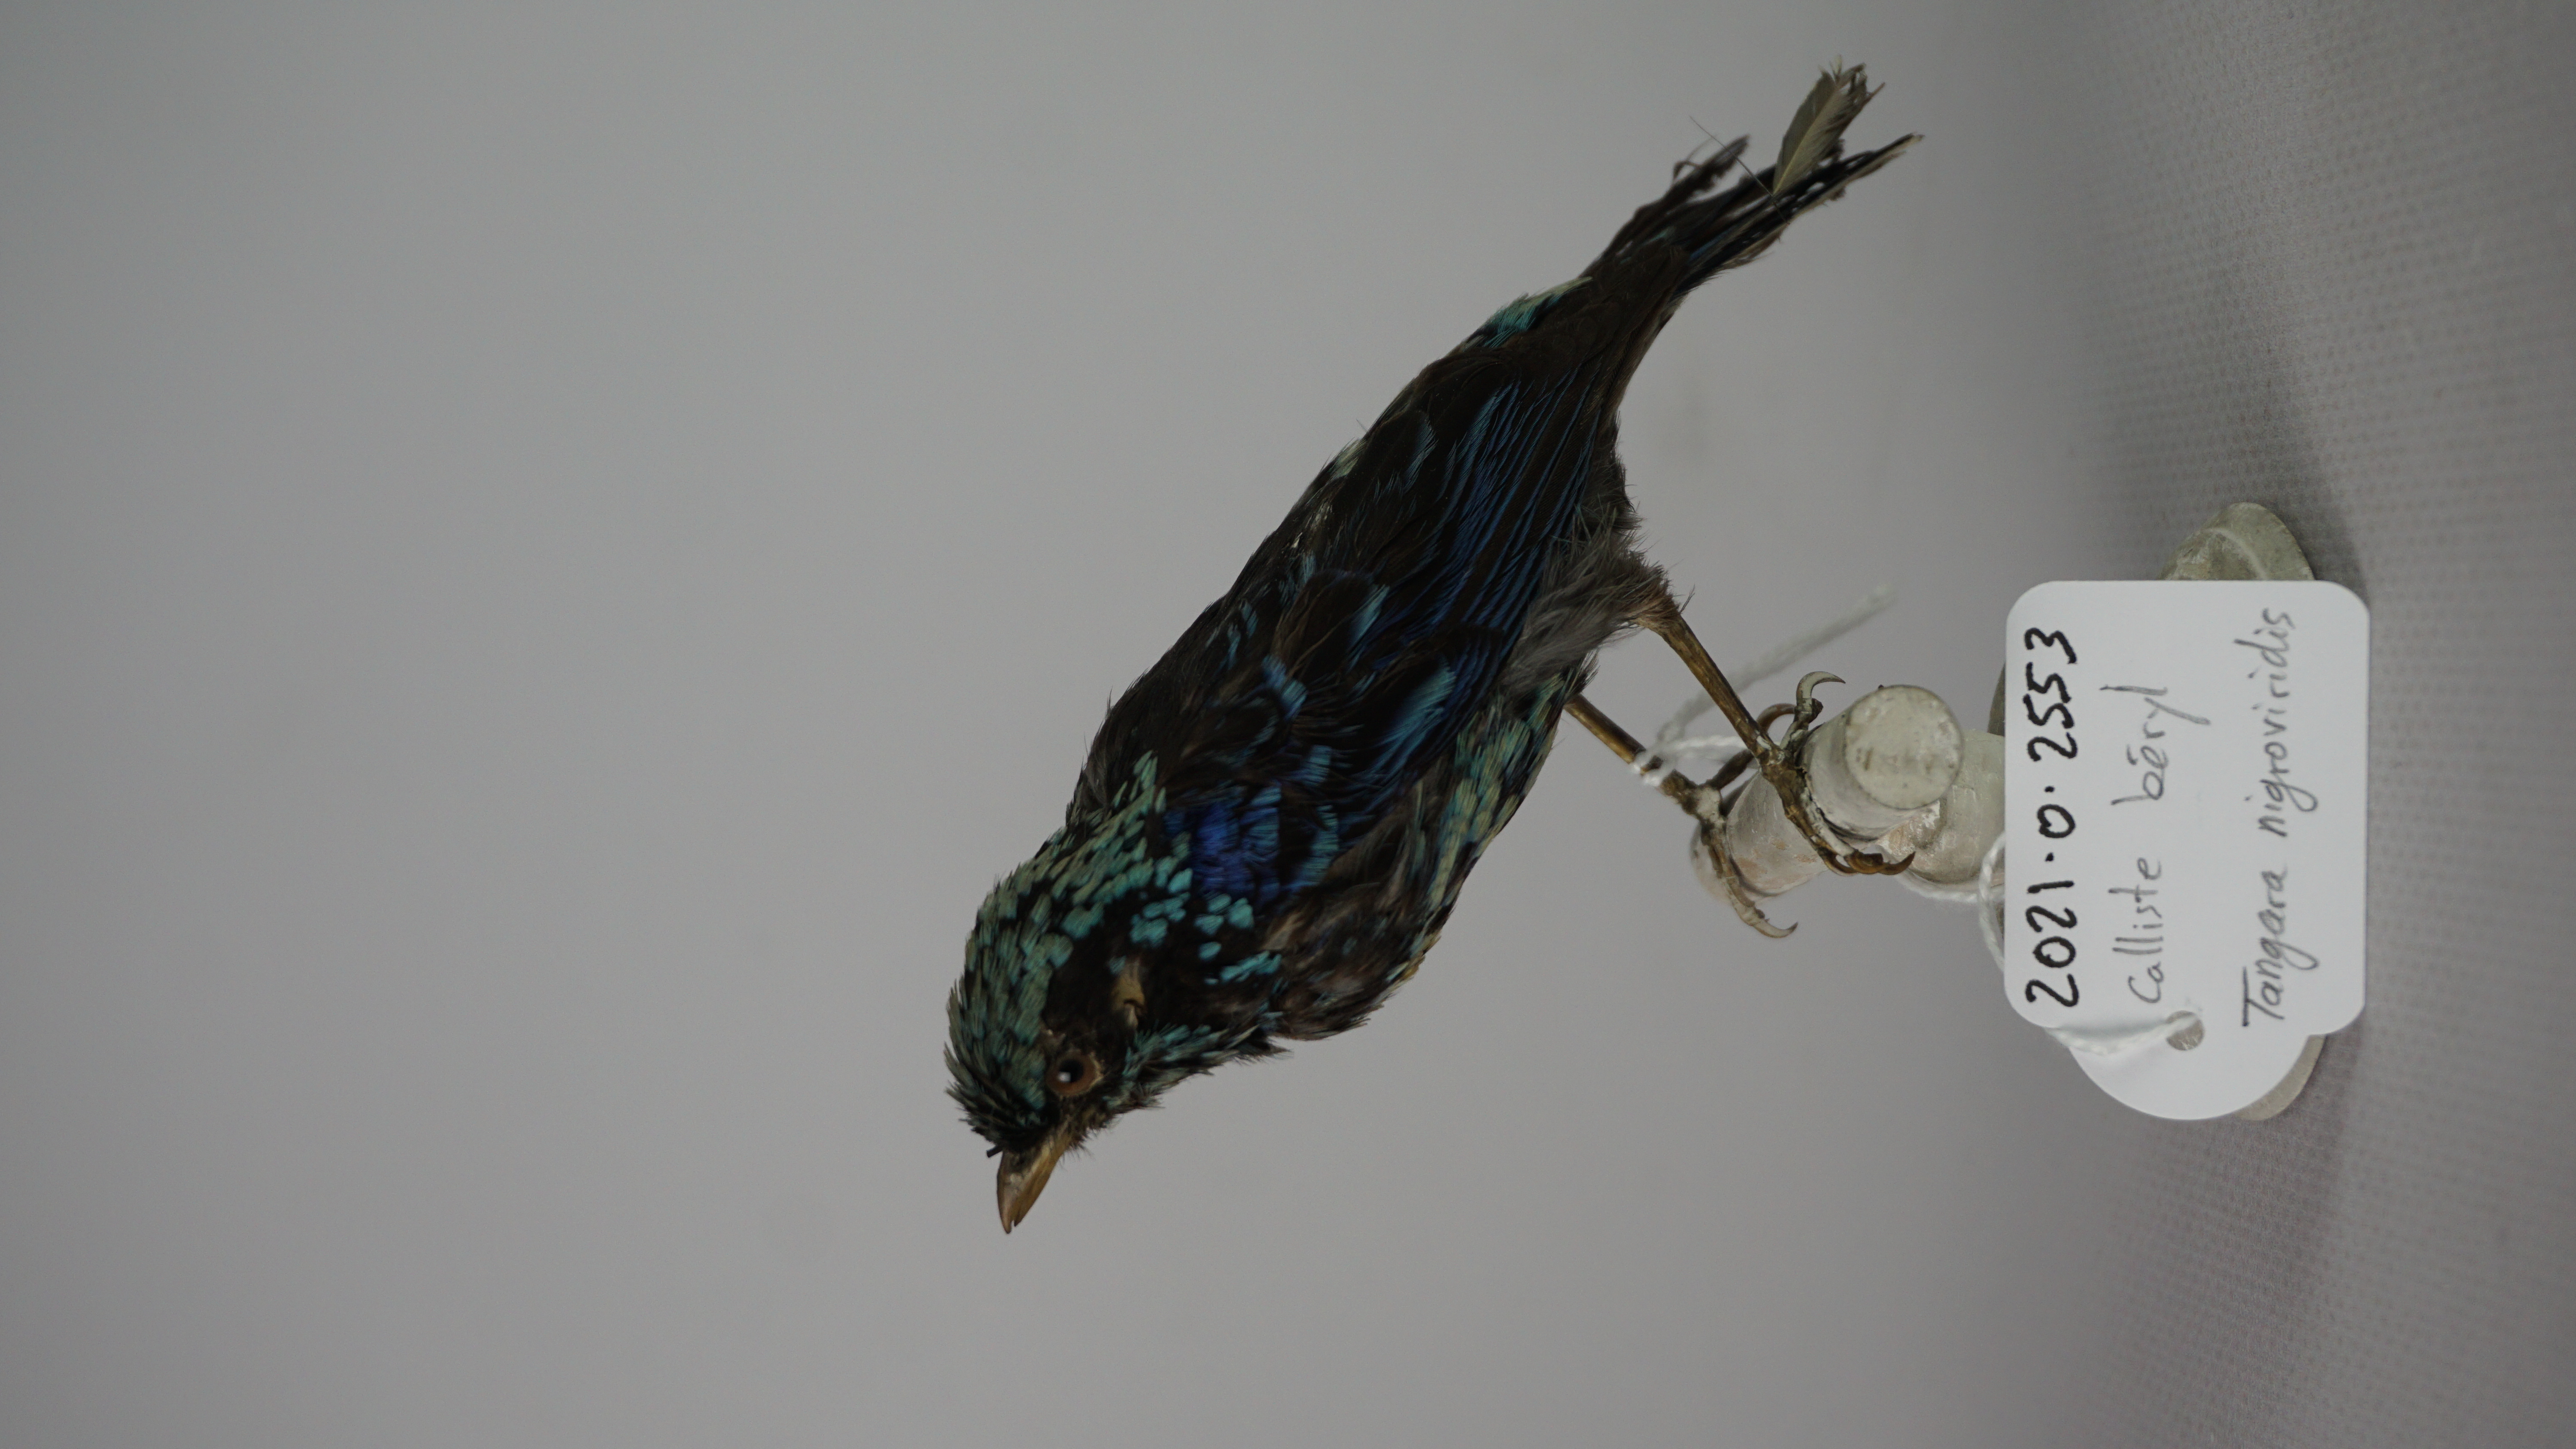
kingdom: Animalia
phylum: Chordata
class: Aves
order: Passeriformes
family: Thraupidae
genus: Tangara
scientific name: Tangara nigroviridis
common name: Beryl-spangled tanager
